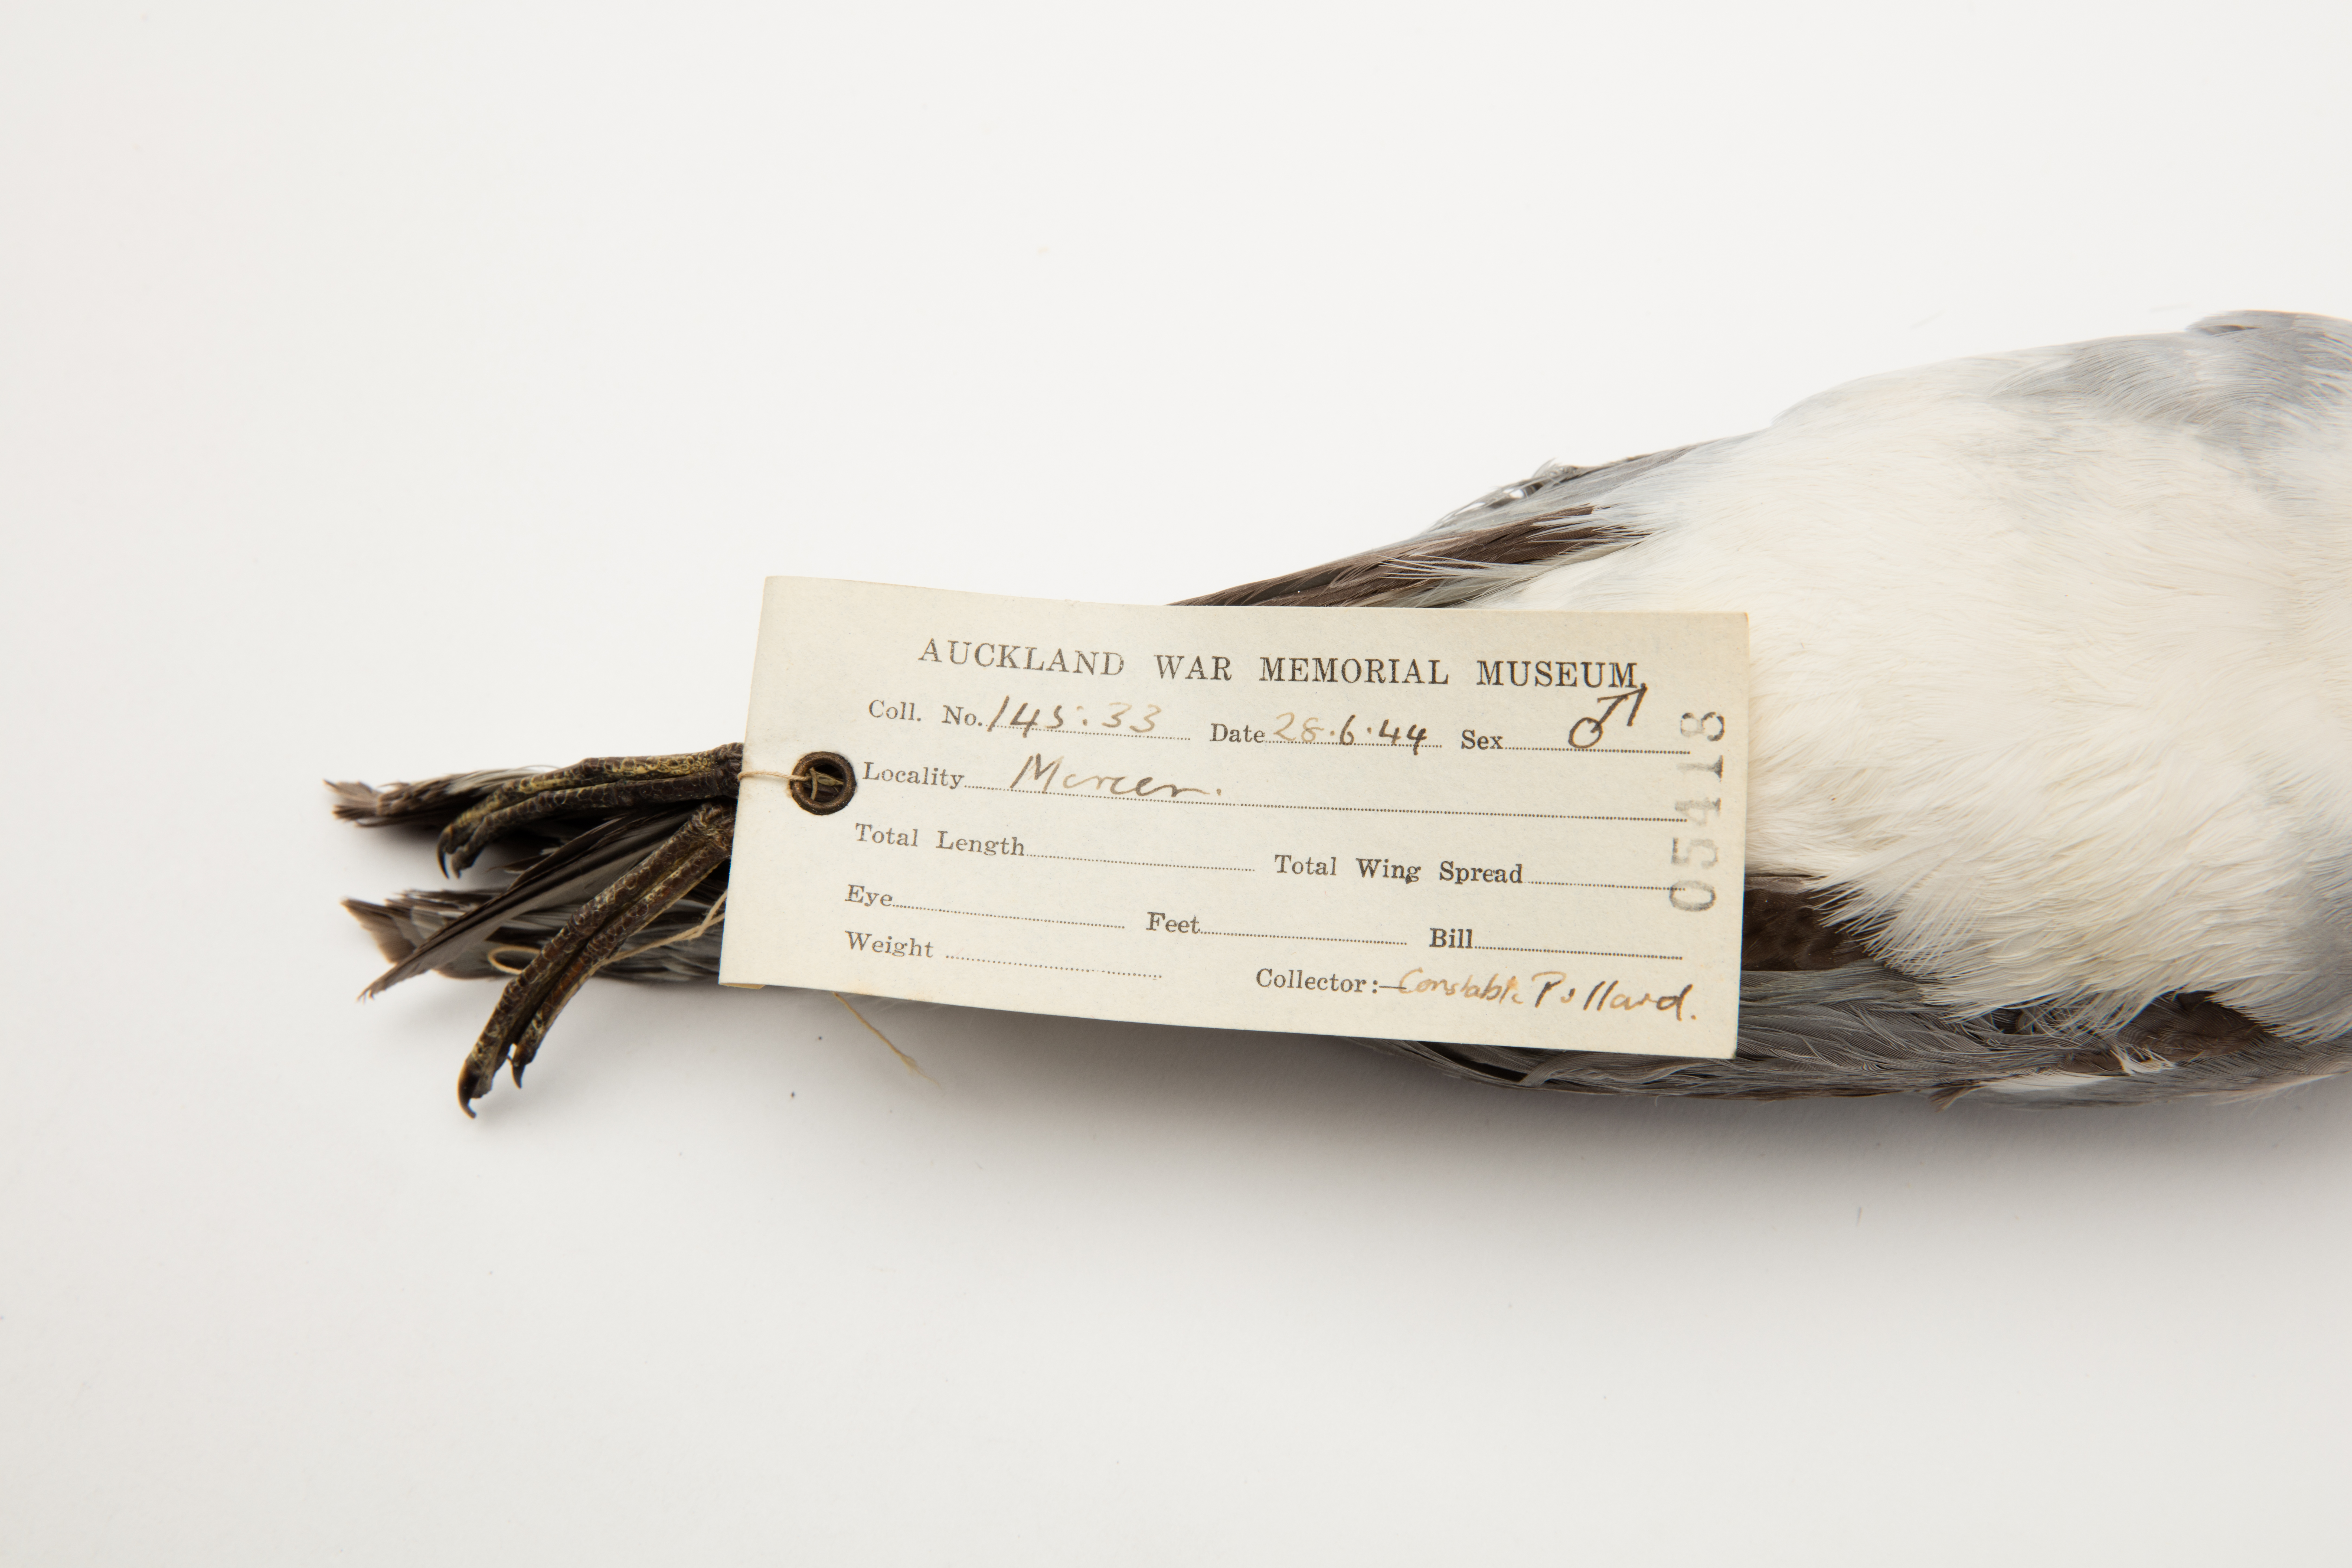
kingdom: Animalia
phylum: Chordata
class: Aves
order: Procellariiformes
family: Procellariidae
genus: Pachyptila
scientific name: Pachyptila vittata
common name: Broad-billed prion
